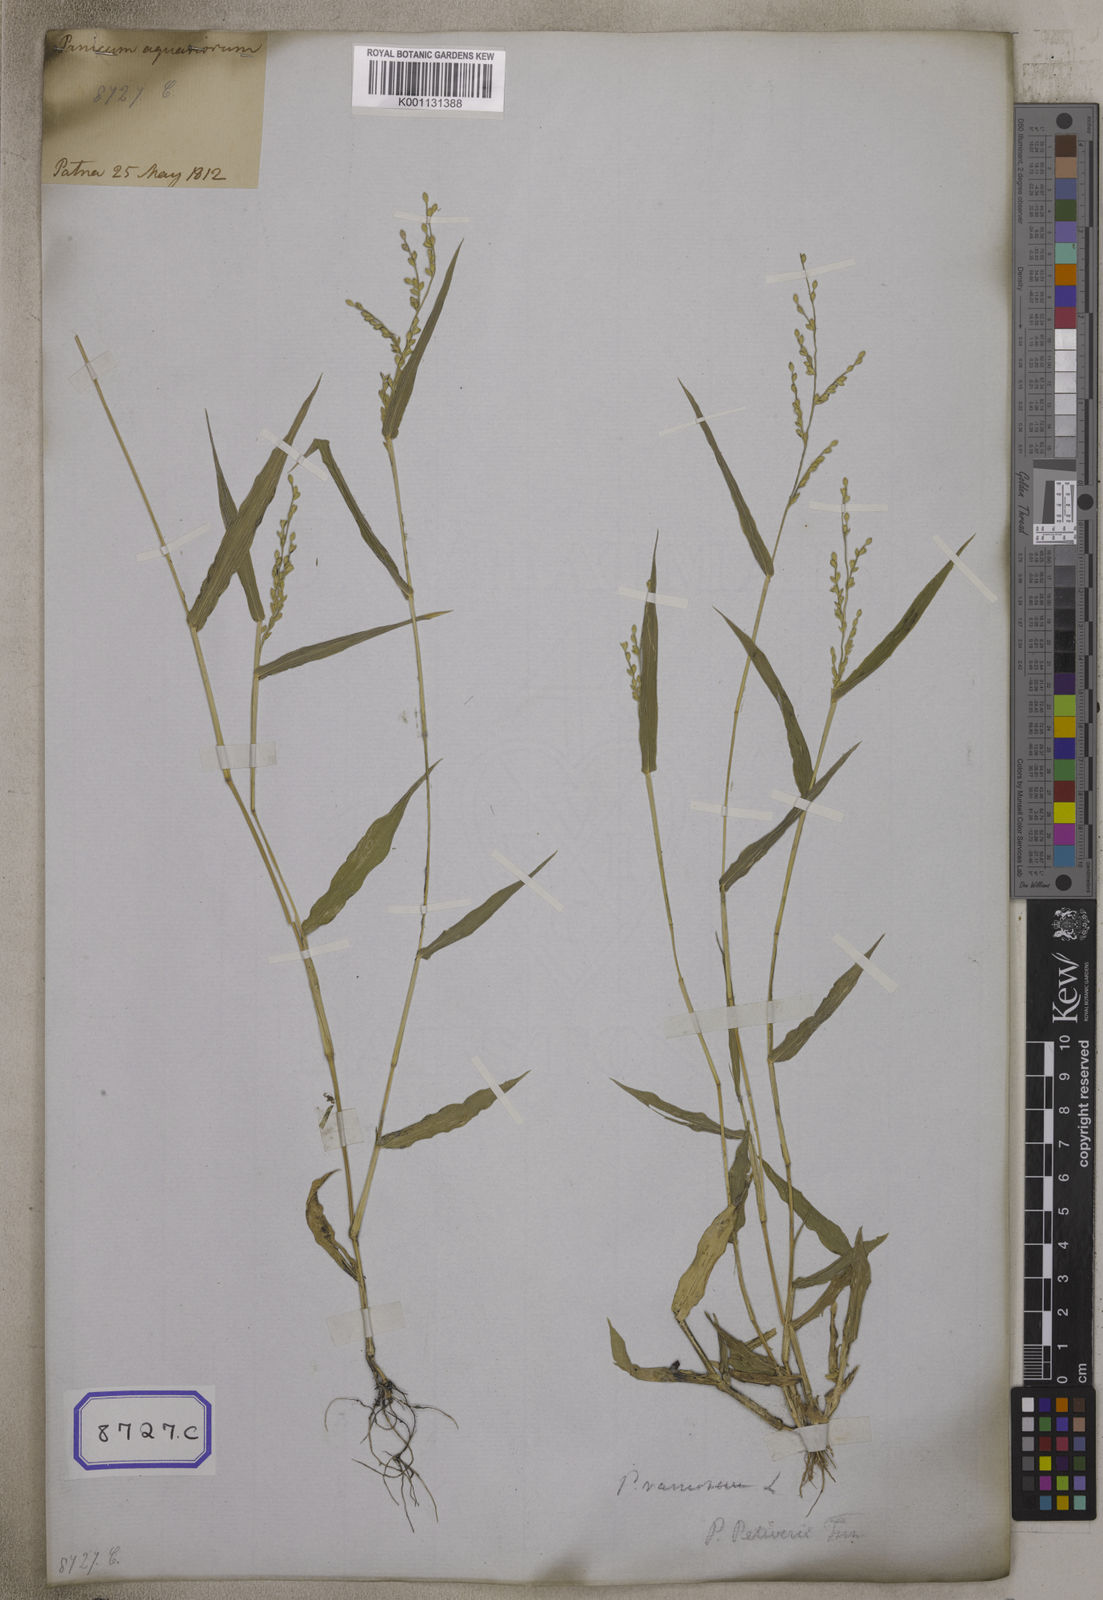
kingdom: Plantae
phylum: Tracheophyta
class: Liliopsida
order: Poales
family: Poaceae
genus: Panicum
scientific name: Panicum
